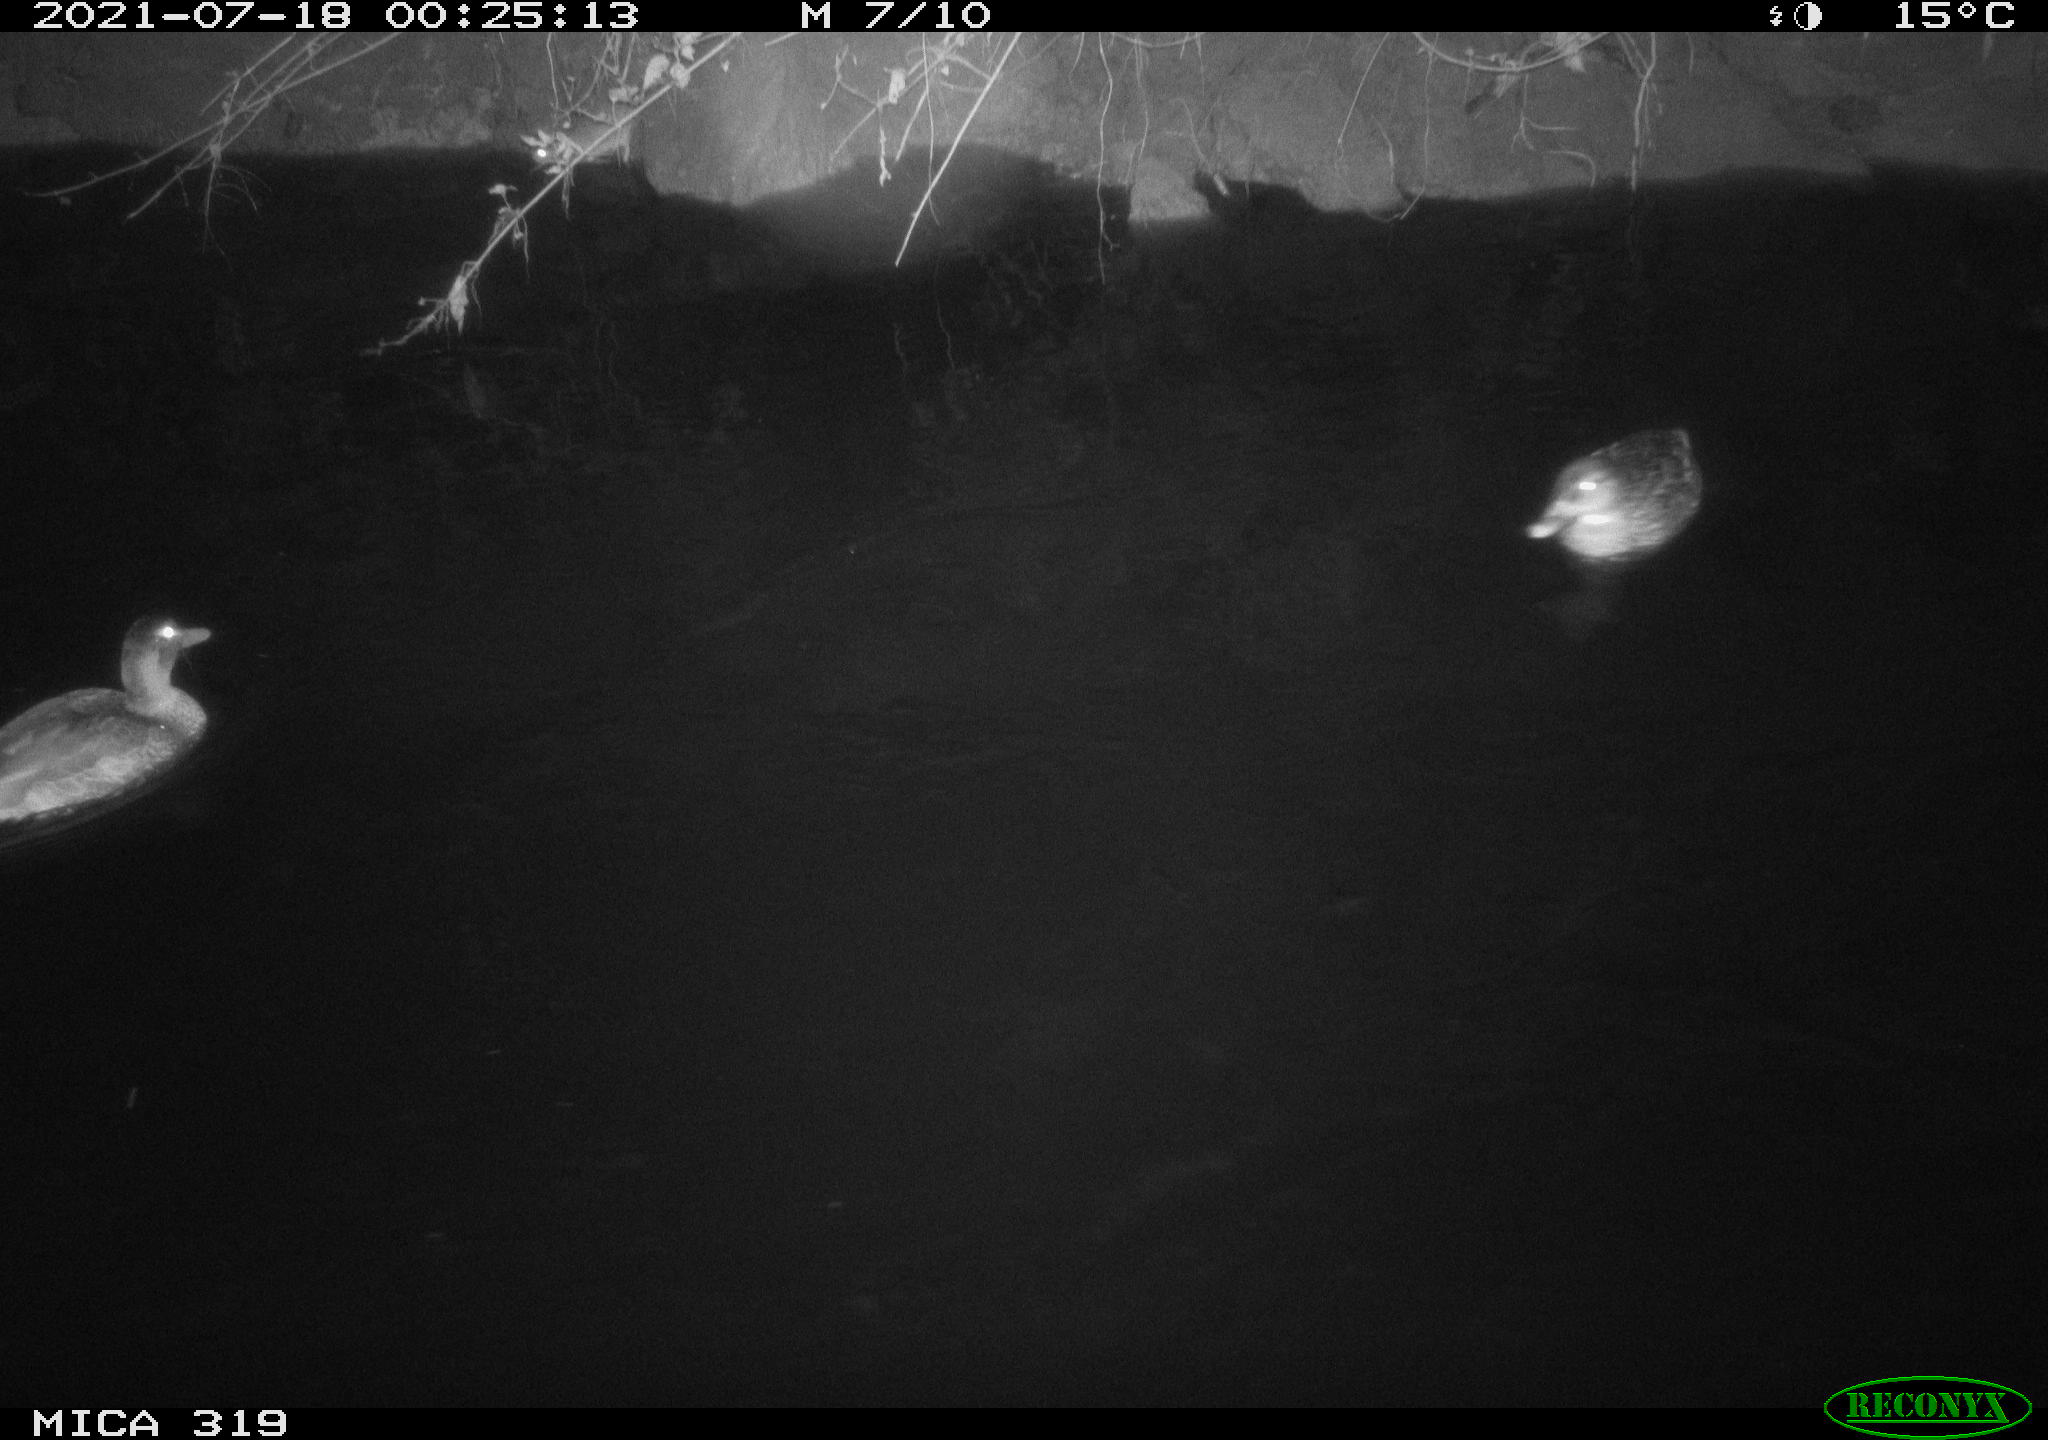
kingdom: Animalia
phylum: Chordata
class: Aves
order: Anseriformes
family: Anatidae
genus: Anas
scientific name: Anas platyrhynchos
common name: Mallard
